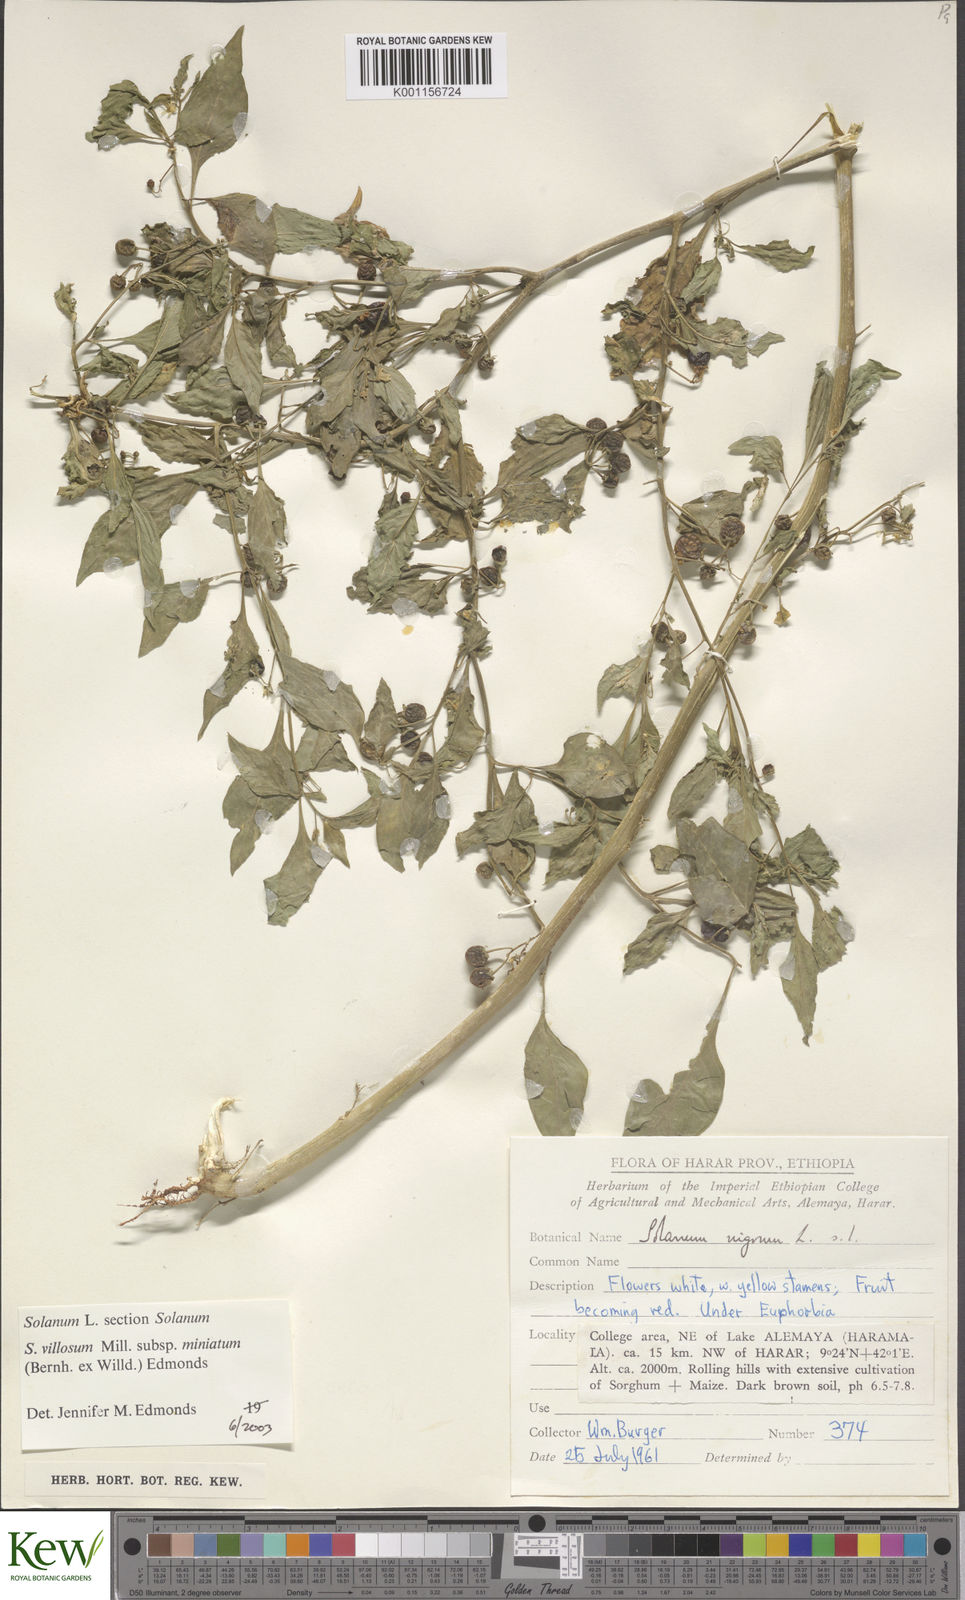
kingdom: Plantae
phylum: Tracheophyta
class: Magnoliopsida
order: Solanales
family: Solanaceae
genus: Solanum
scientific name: Solanum villosum
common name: Red nightshade
